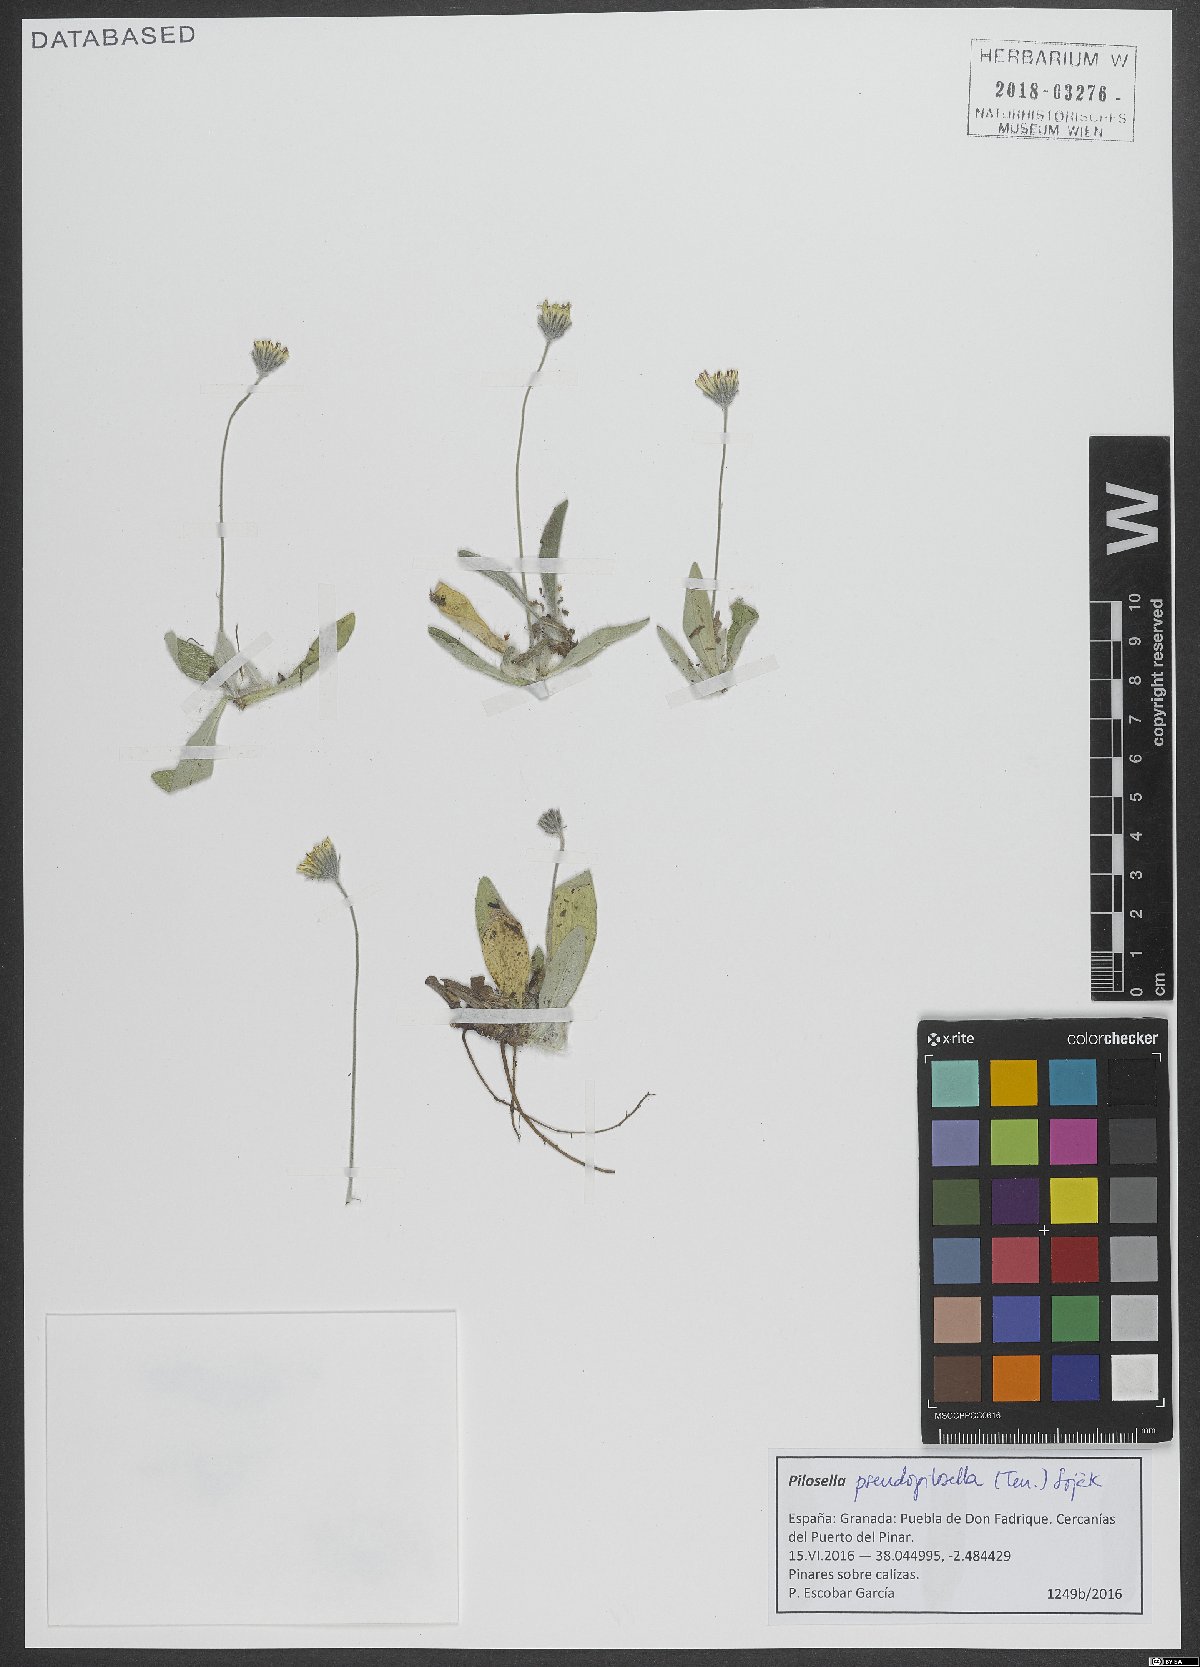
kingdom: Plantae
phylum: Tracheophyta
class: Magnoliopsida
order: Asterales
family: Asteraceae
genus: Pilosella
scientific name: Pilosella pseudopilosella
